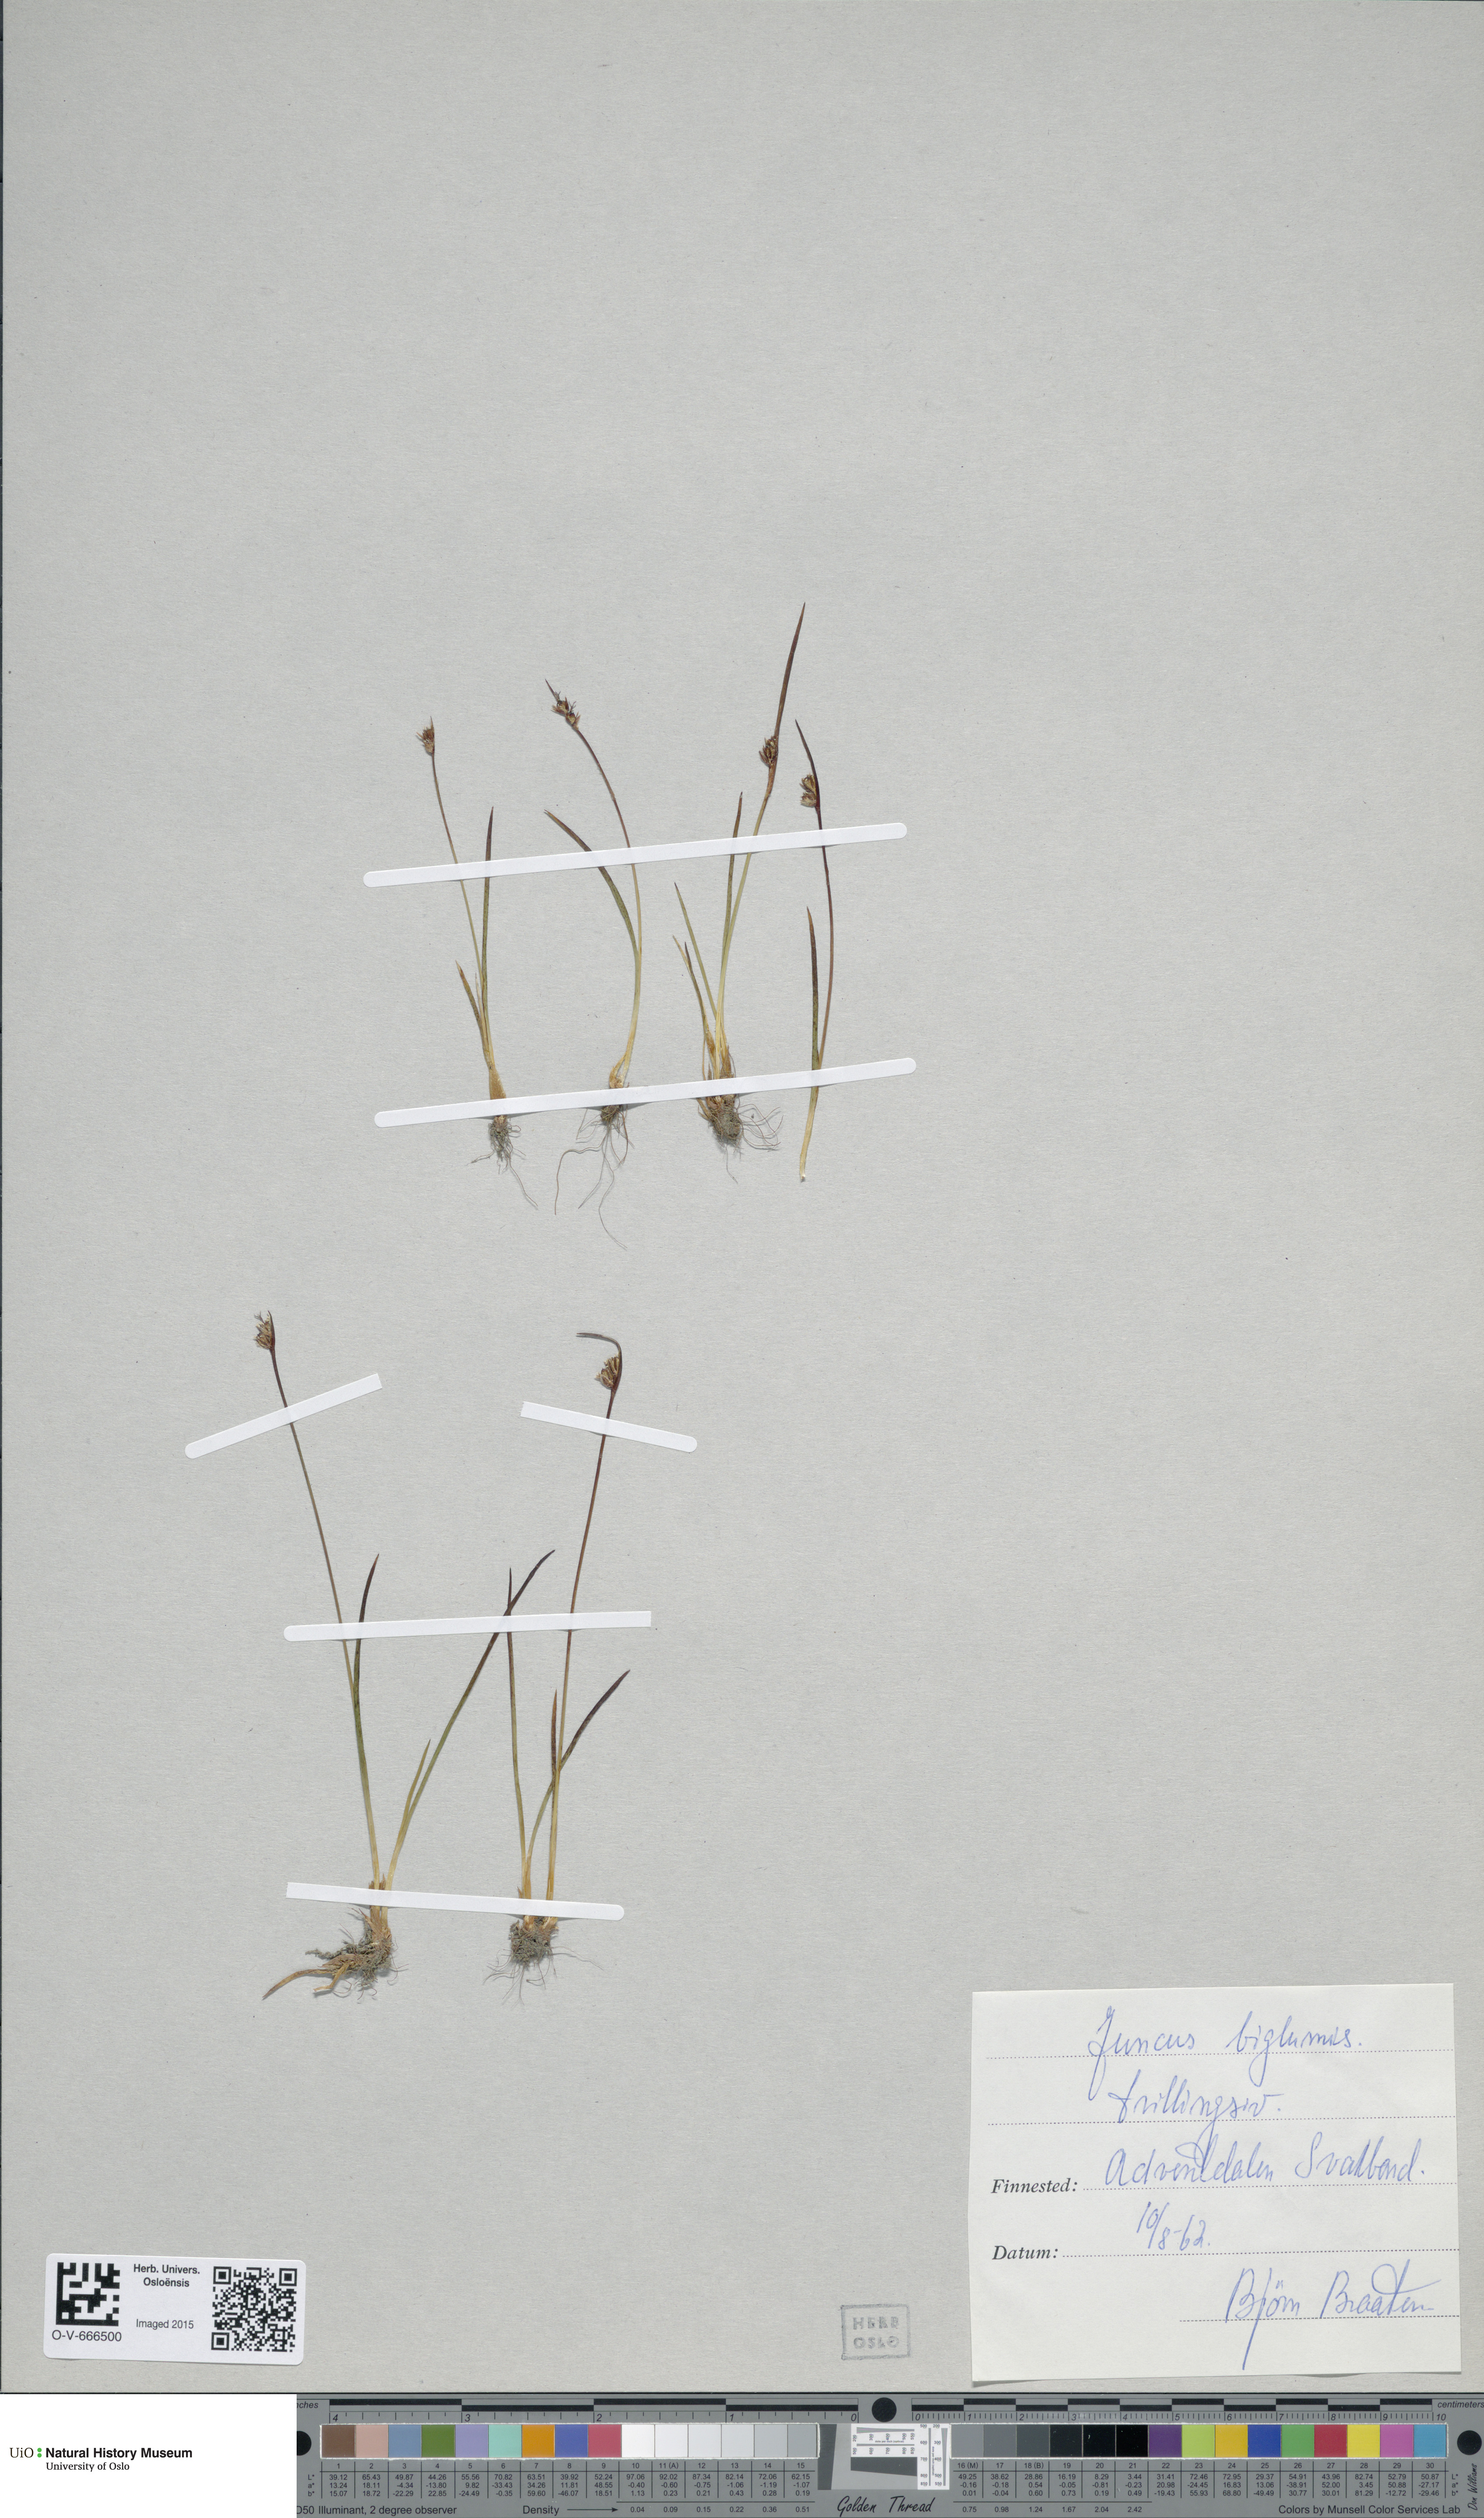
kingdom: Plantae
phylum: Tracheophyta
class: Liliopsida
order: Poales
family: Juncaceae
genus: Juncus
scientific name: Juncus biglumis
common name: Two-flowered rush
